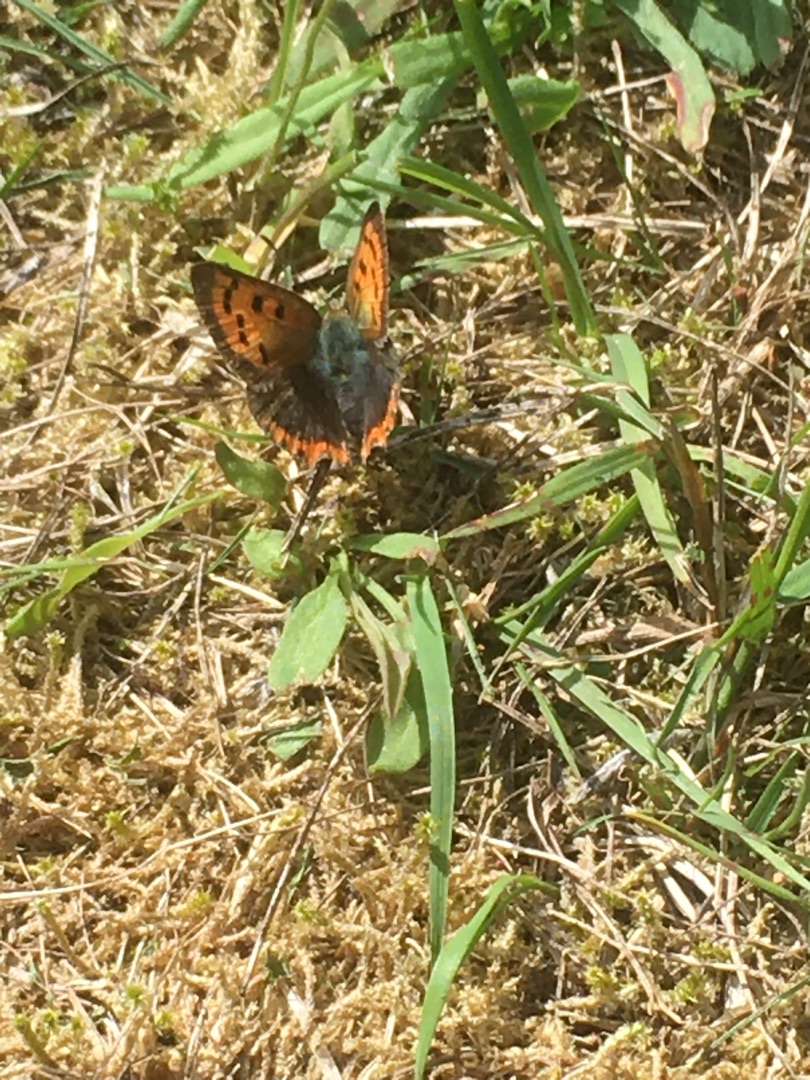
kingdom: Animalia
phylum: Arthropoda
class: Insecta
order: Lepidoptera
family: Lycaenidae
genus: Lycaena
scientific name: Lycaena phlaeas
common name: Lille ildfugl
